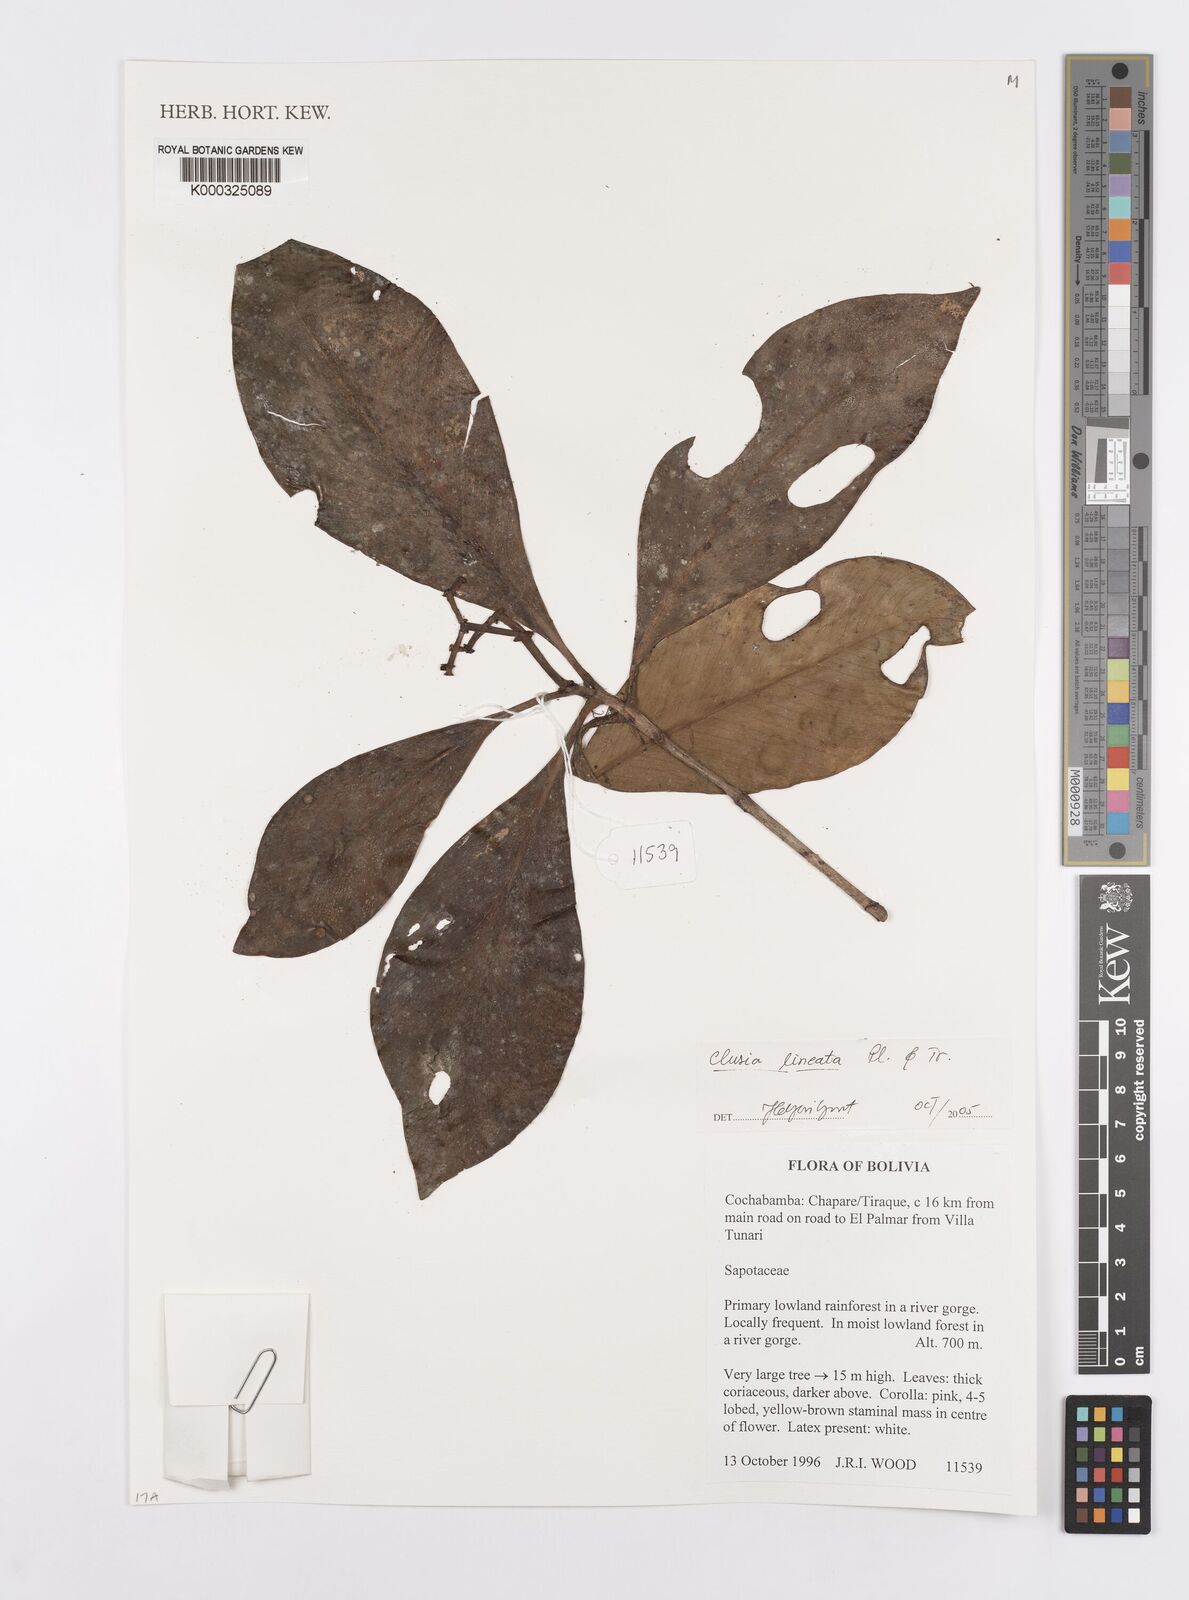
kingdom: Plantae
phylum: Tracheophyta
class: Magnoliopsida
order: Malpighiales
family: Clusiaceae
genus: Clusia
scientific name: Clusia
